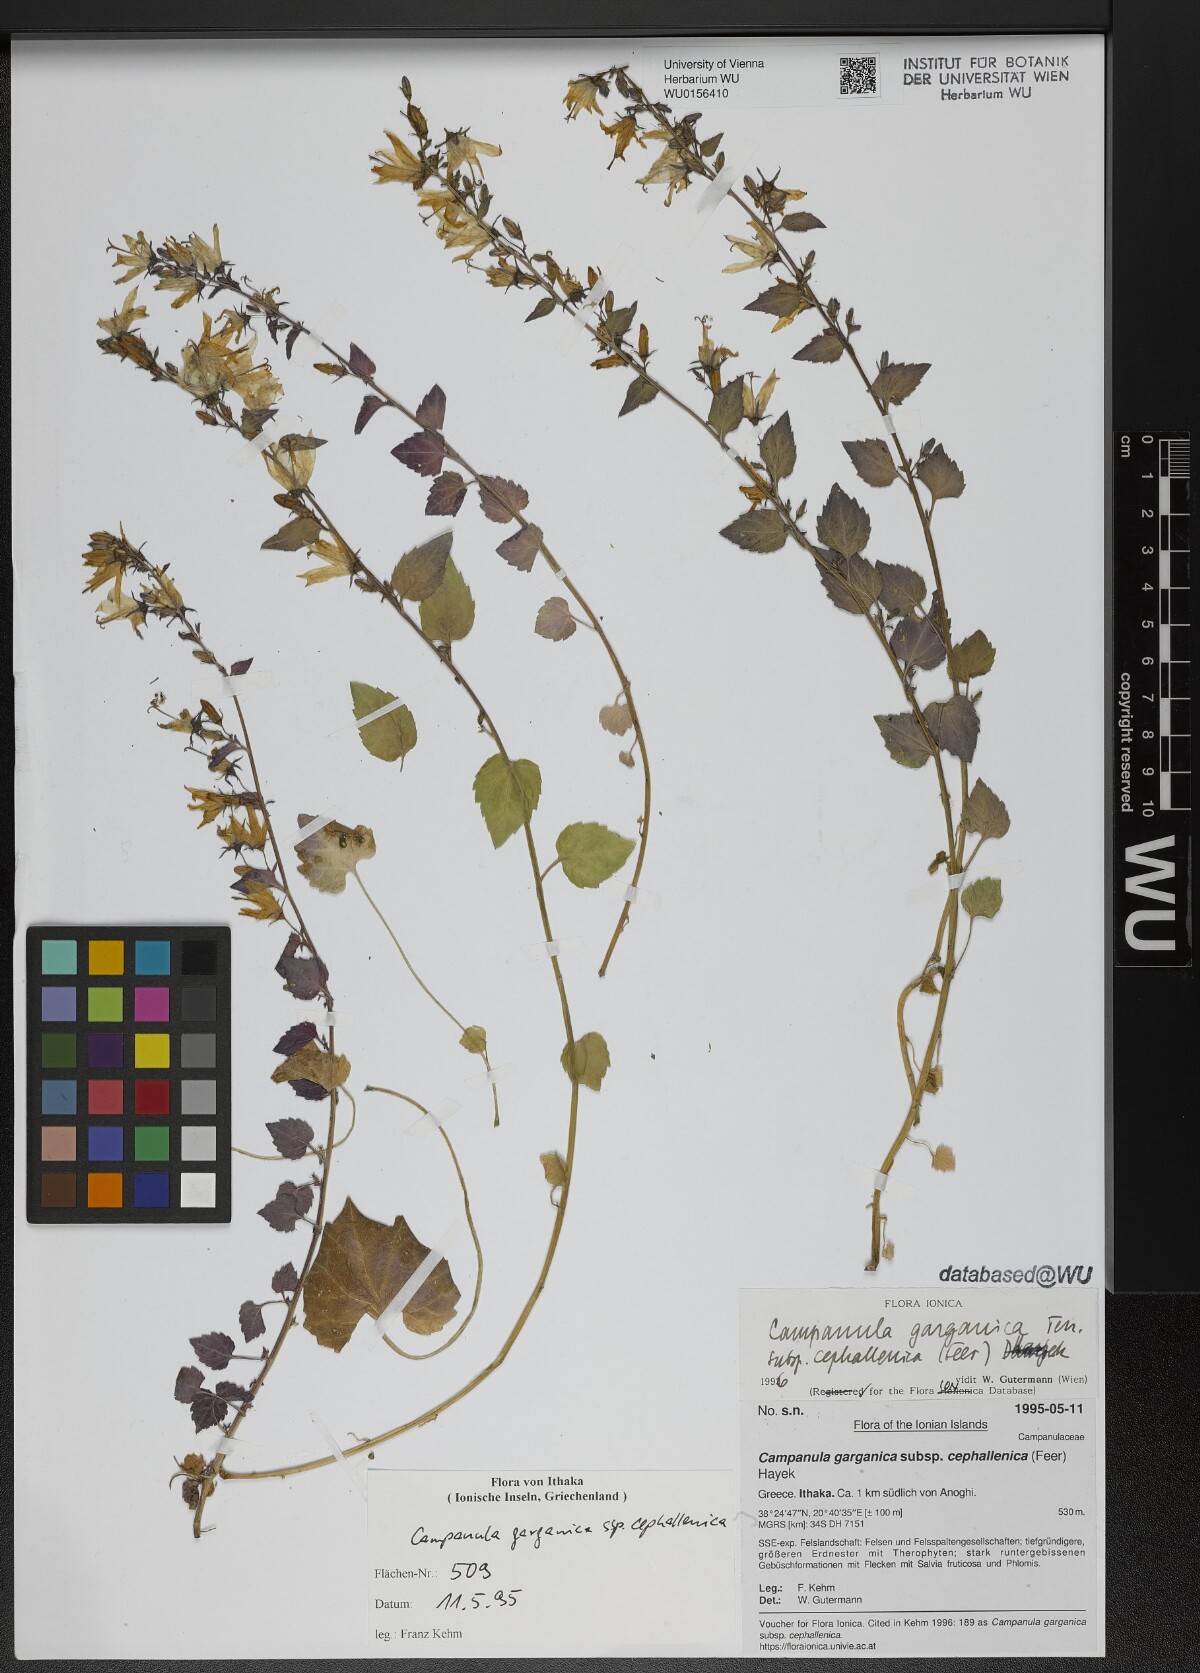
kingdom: Plantae
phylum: Tracheophyta
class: Magnoliopsida
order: Asterales
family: Campanulaceae
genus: Campanula
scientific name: Campanula garganica
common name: Adriatic bellflower
